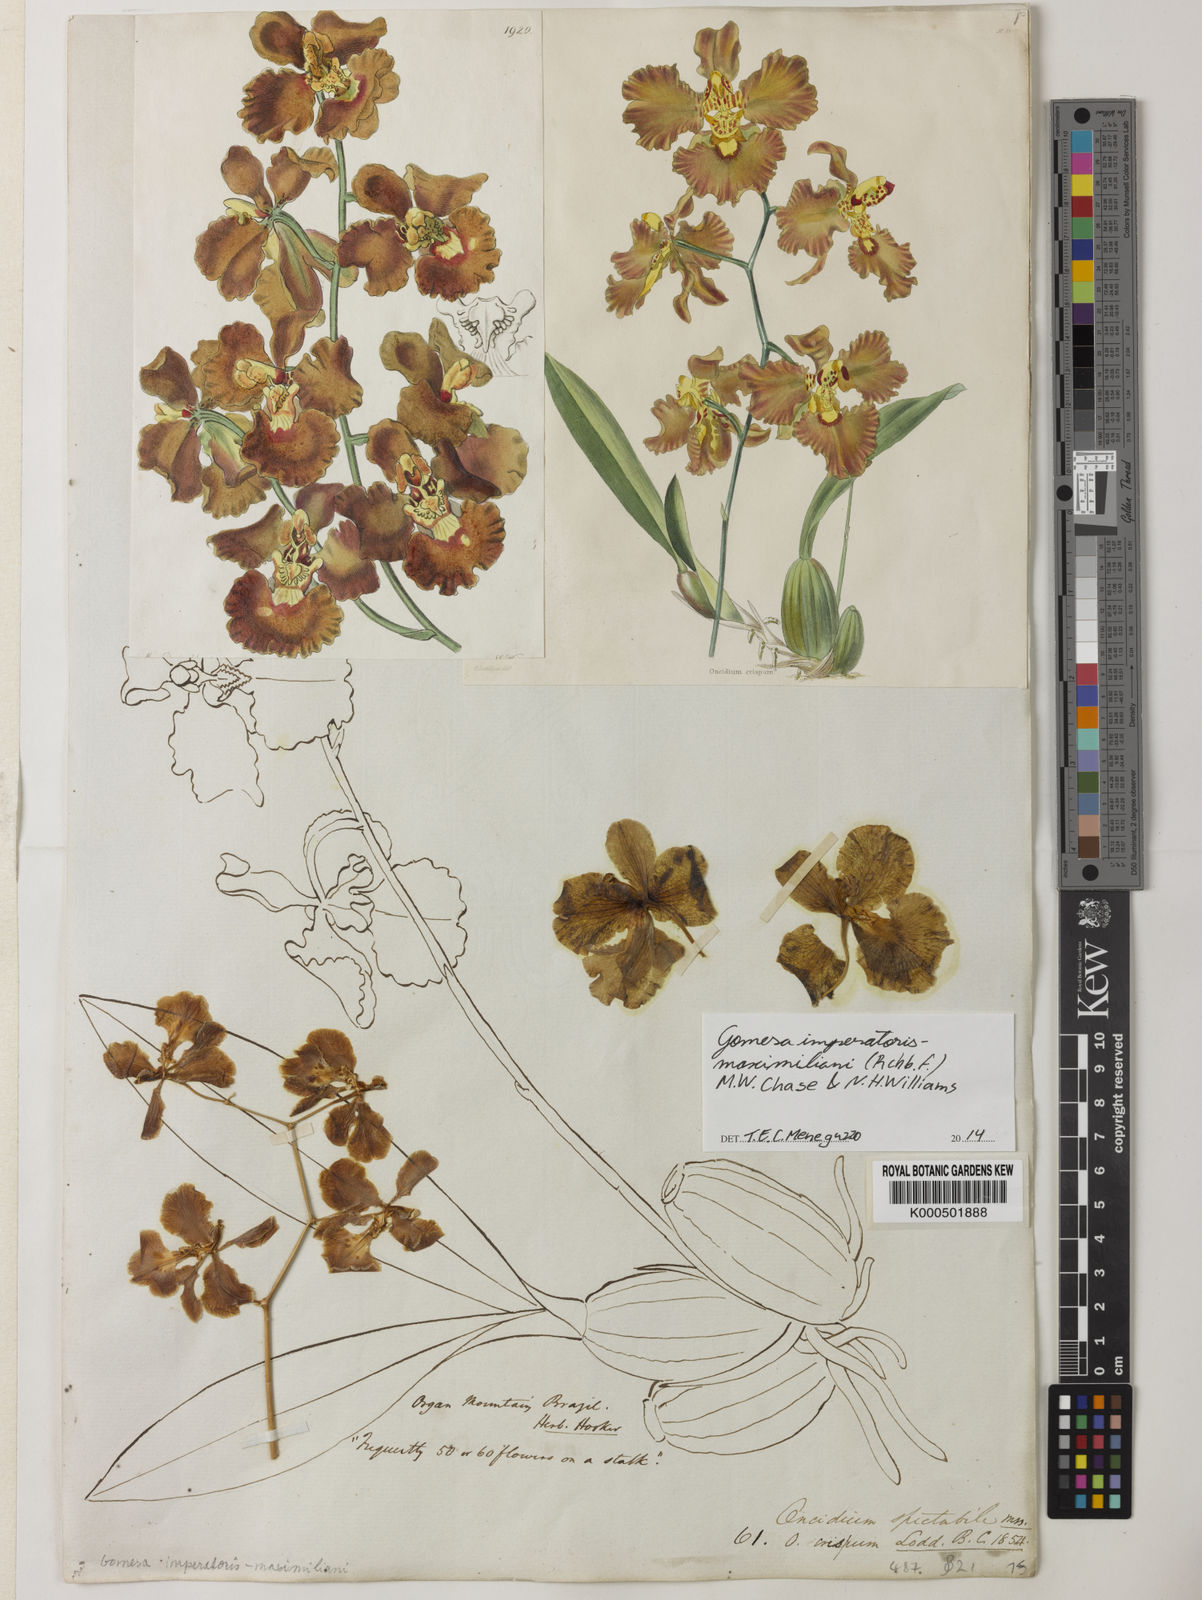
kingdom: Plantae
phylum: Tracheophyta
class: Liliopsida
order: Asparagales
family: Orchidaceae
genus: Gomesa
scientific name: Gomesa imperatoris-maximiliani
